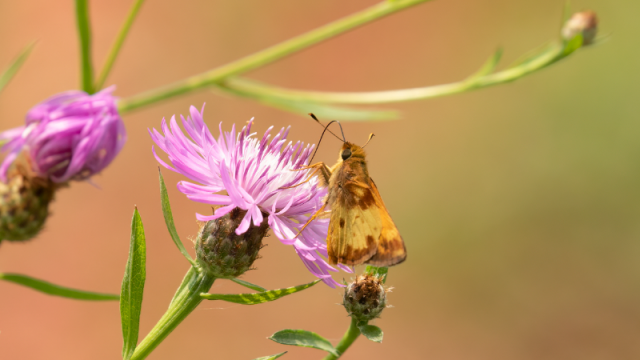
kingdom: Animalia
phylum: Arthropoda
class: Insecta
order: Lepidoptera
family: Hesperiidae
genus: Lon
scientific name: Lon zabulon
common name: Zabulon Skipper
